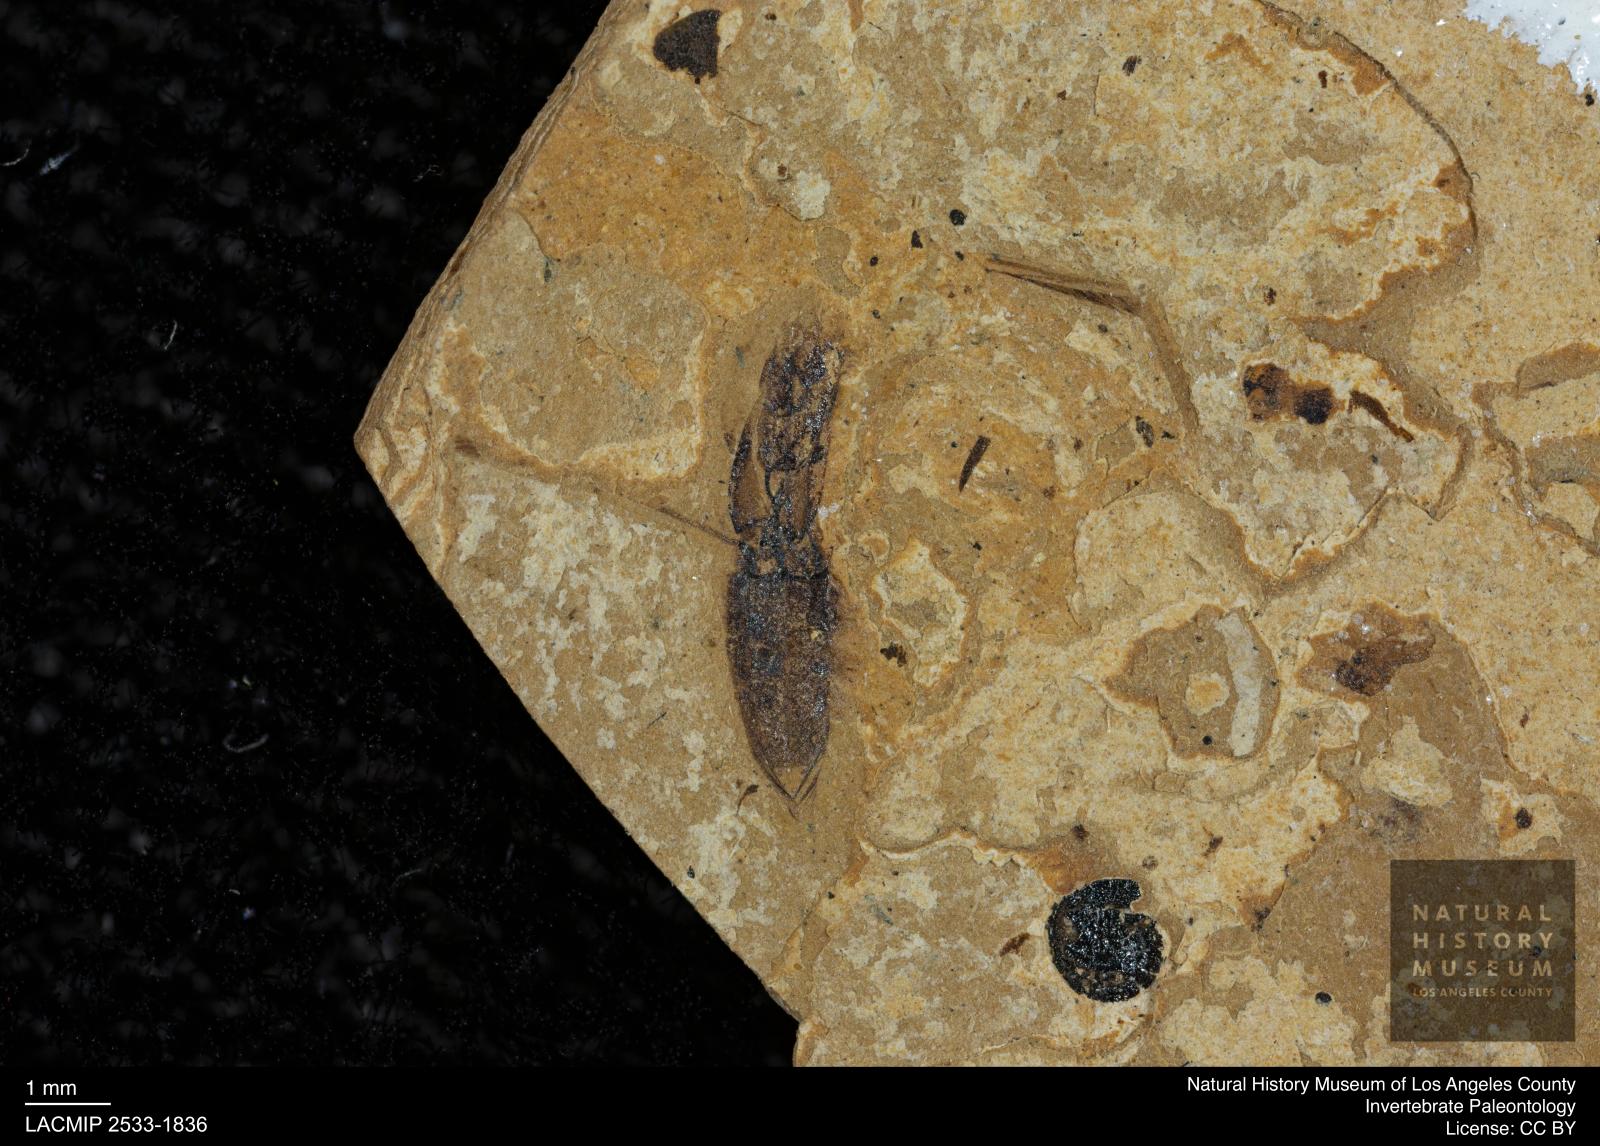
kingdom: Animalia
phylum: Arthropoda
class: Insecta
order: Hemiptera
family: Notonectidae
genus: Notonecta
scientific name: Notonecta
